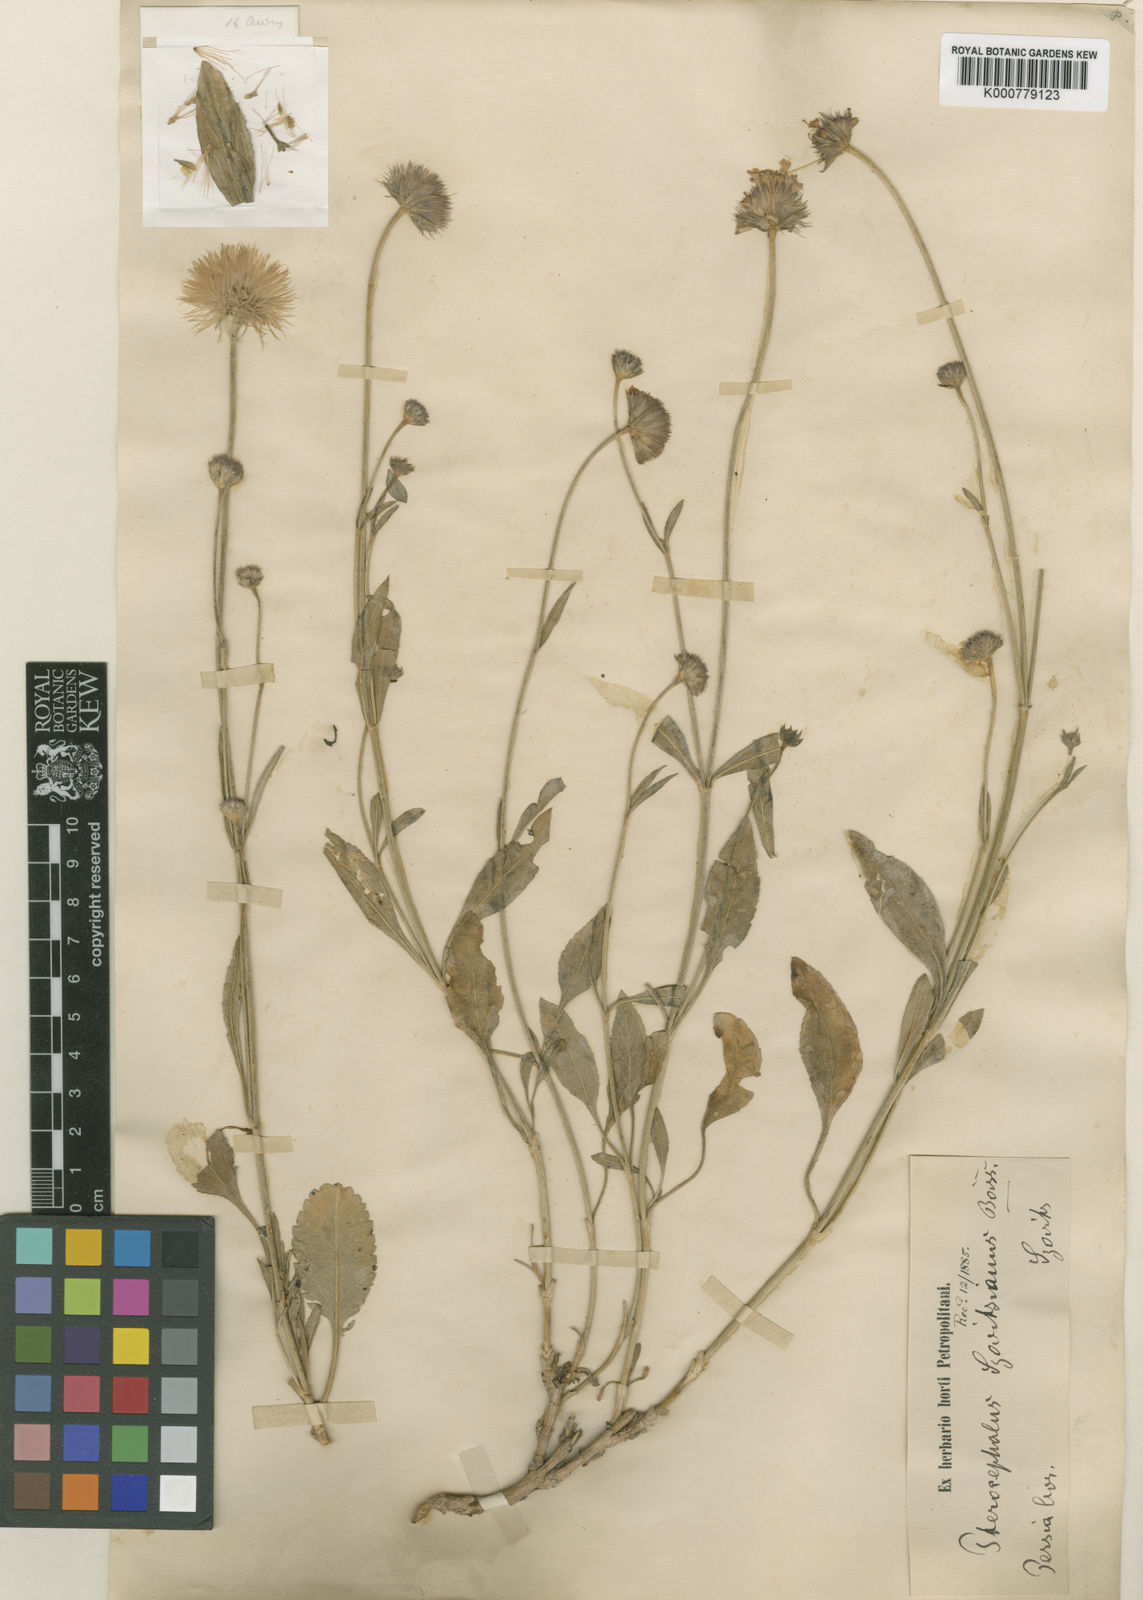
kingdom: Plantae
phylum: Tracheophyta
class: Magnoliopsida
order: Dipsacales
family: Caprifoliaceae
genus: Pterocephalus
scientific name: Pterocephalus szovitsii
